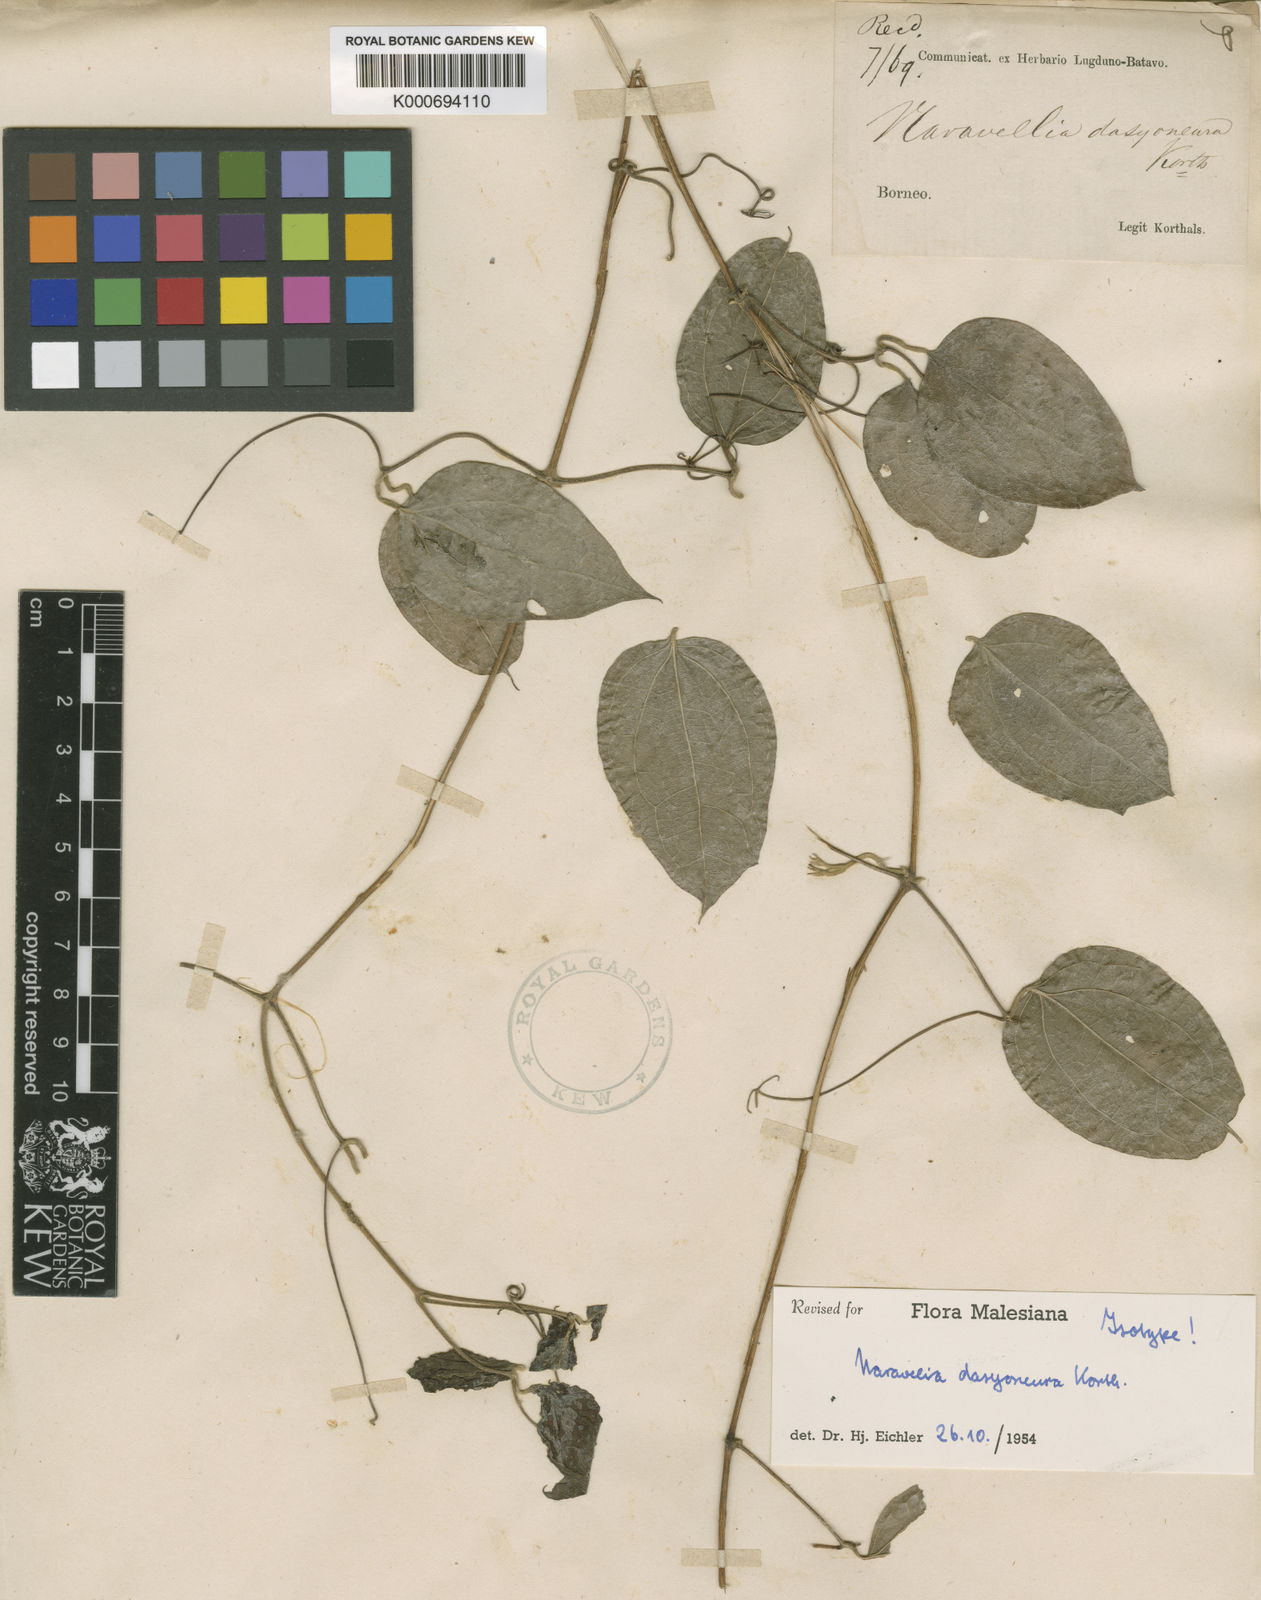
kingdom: Plantae
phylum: Tracheophyta
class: Magnoliopsida
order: Ranunculales
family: Ranunculaceae
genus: Clematis
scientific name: Clematis dasyoneura
